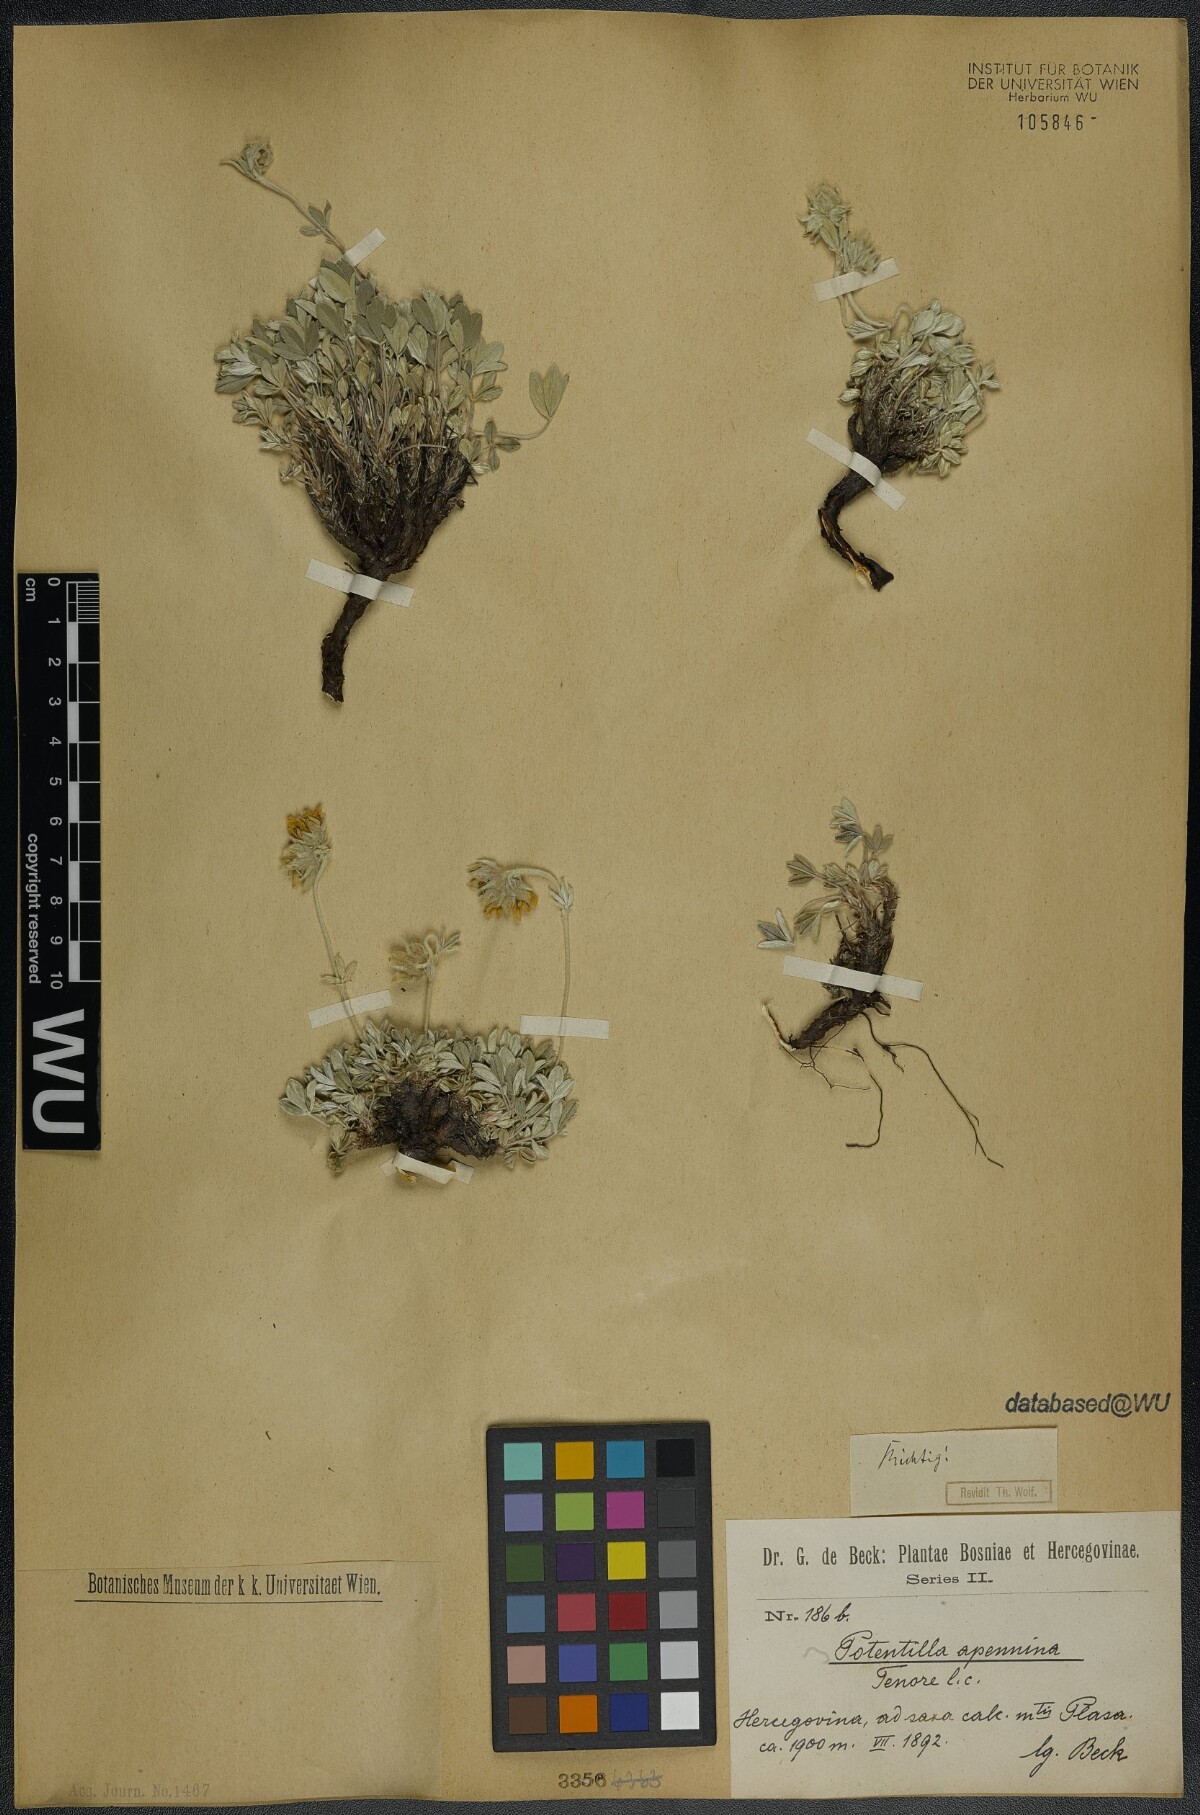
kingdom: Plantae
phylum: Tracheophyta
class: Magnoliopsida
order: Rosales
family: Rosaceae
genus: Potentilla
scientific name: Potentilla apennina
